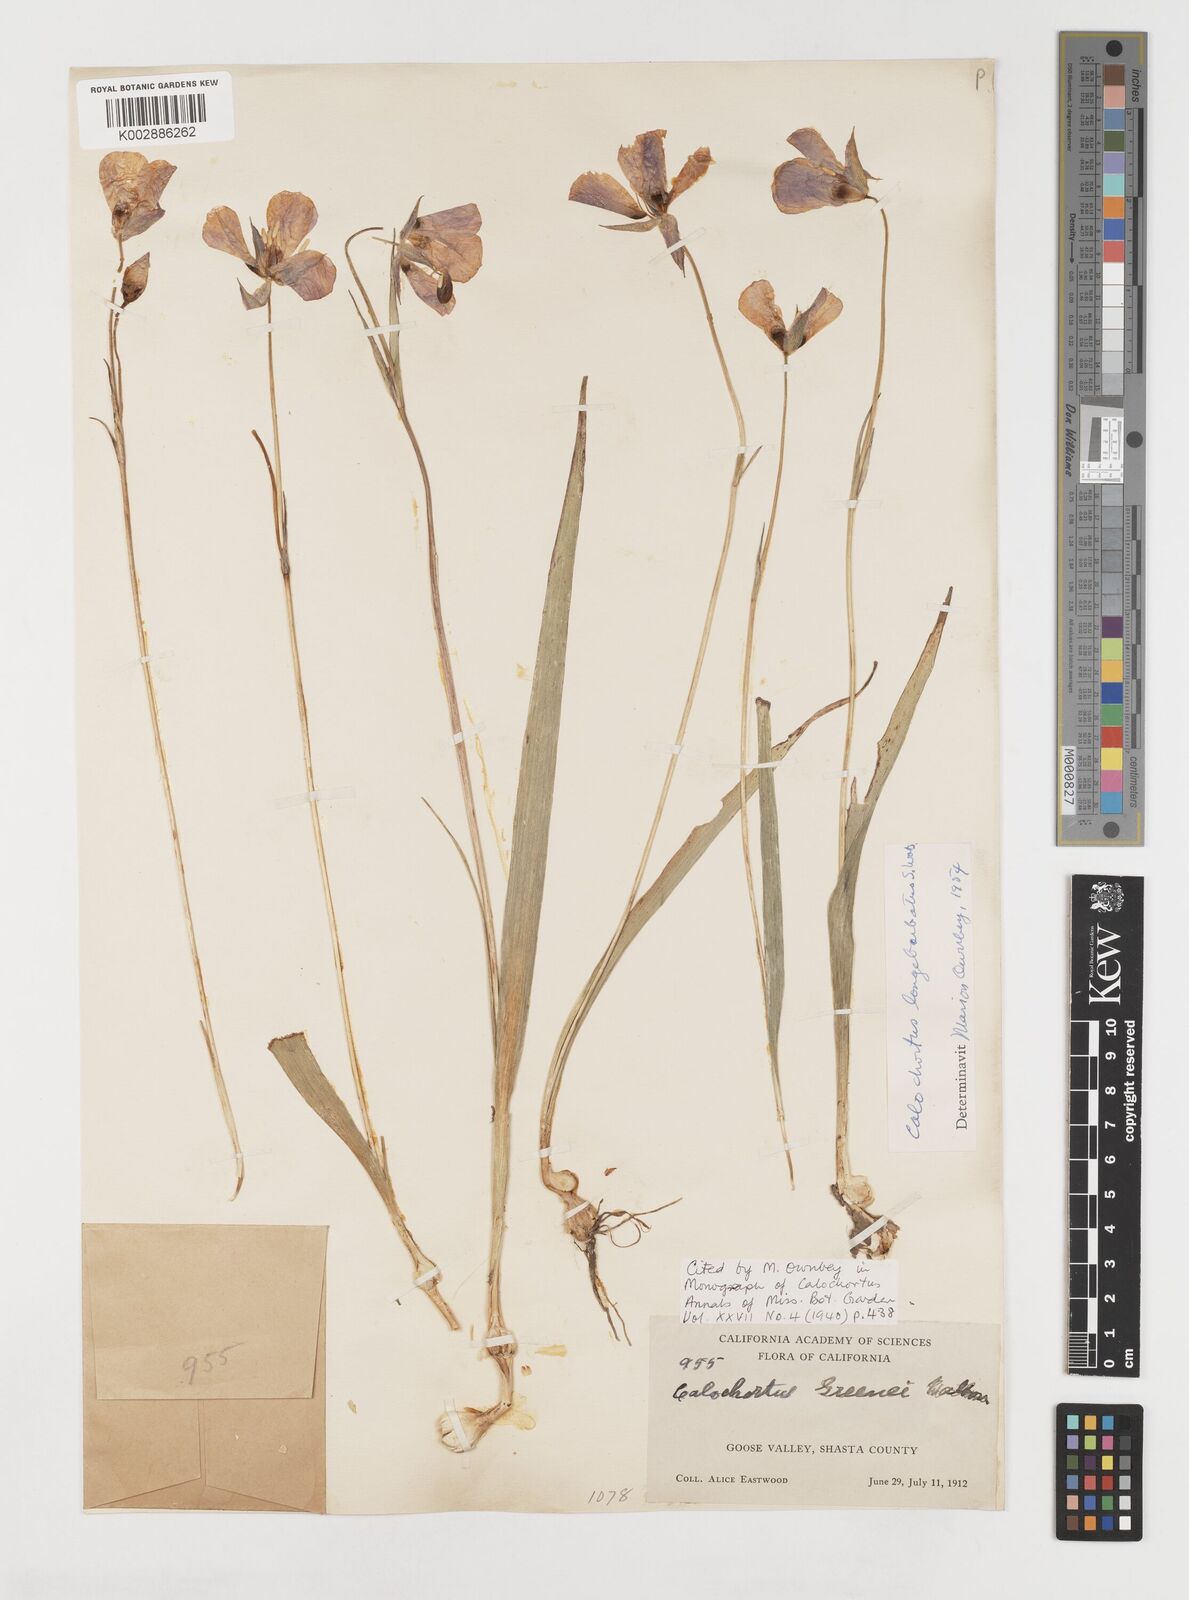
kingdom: Plantae
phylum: Tracheophyta
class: Liliopsida
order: Liliales
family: Liliaceae
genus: Calochortus
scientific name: Calochortus longibarbatus
